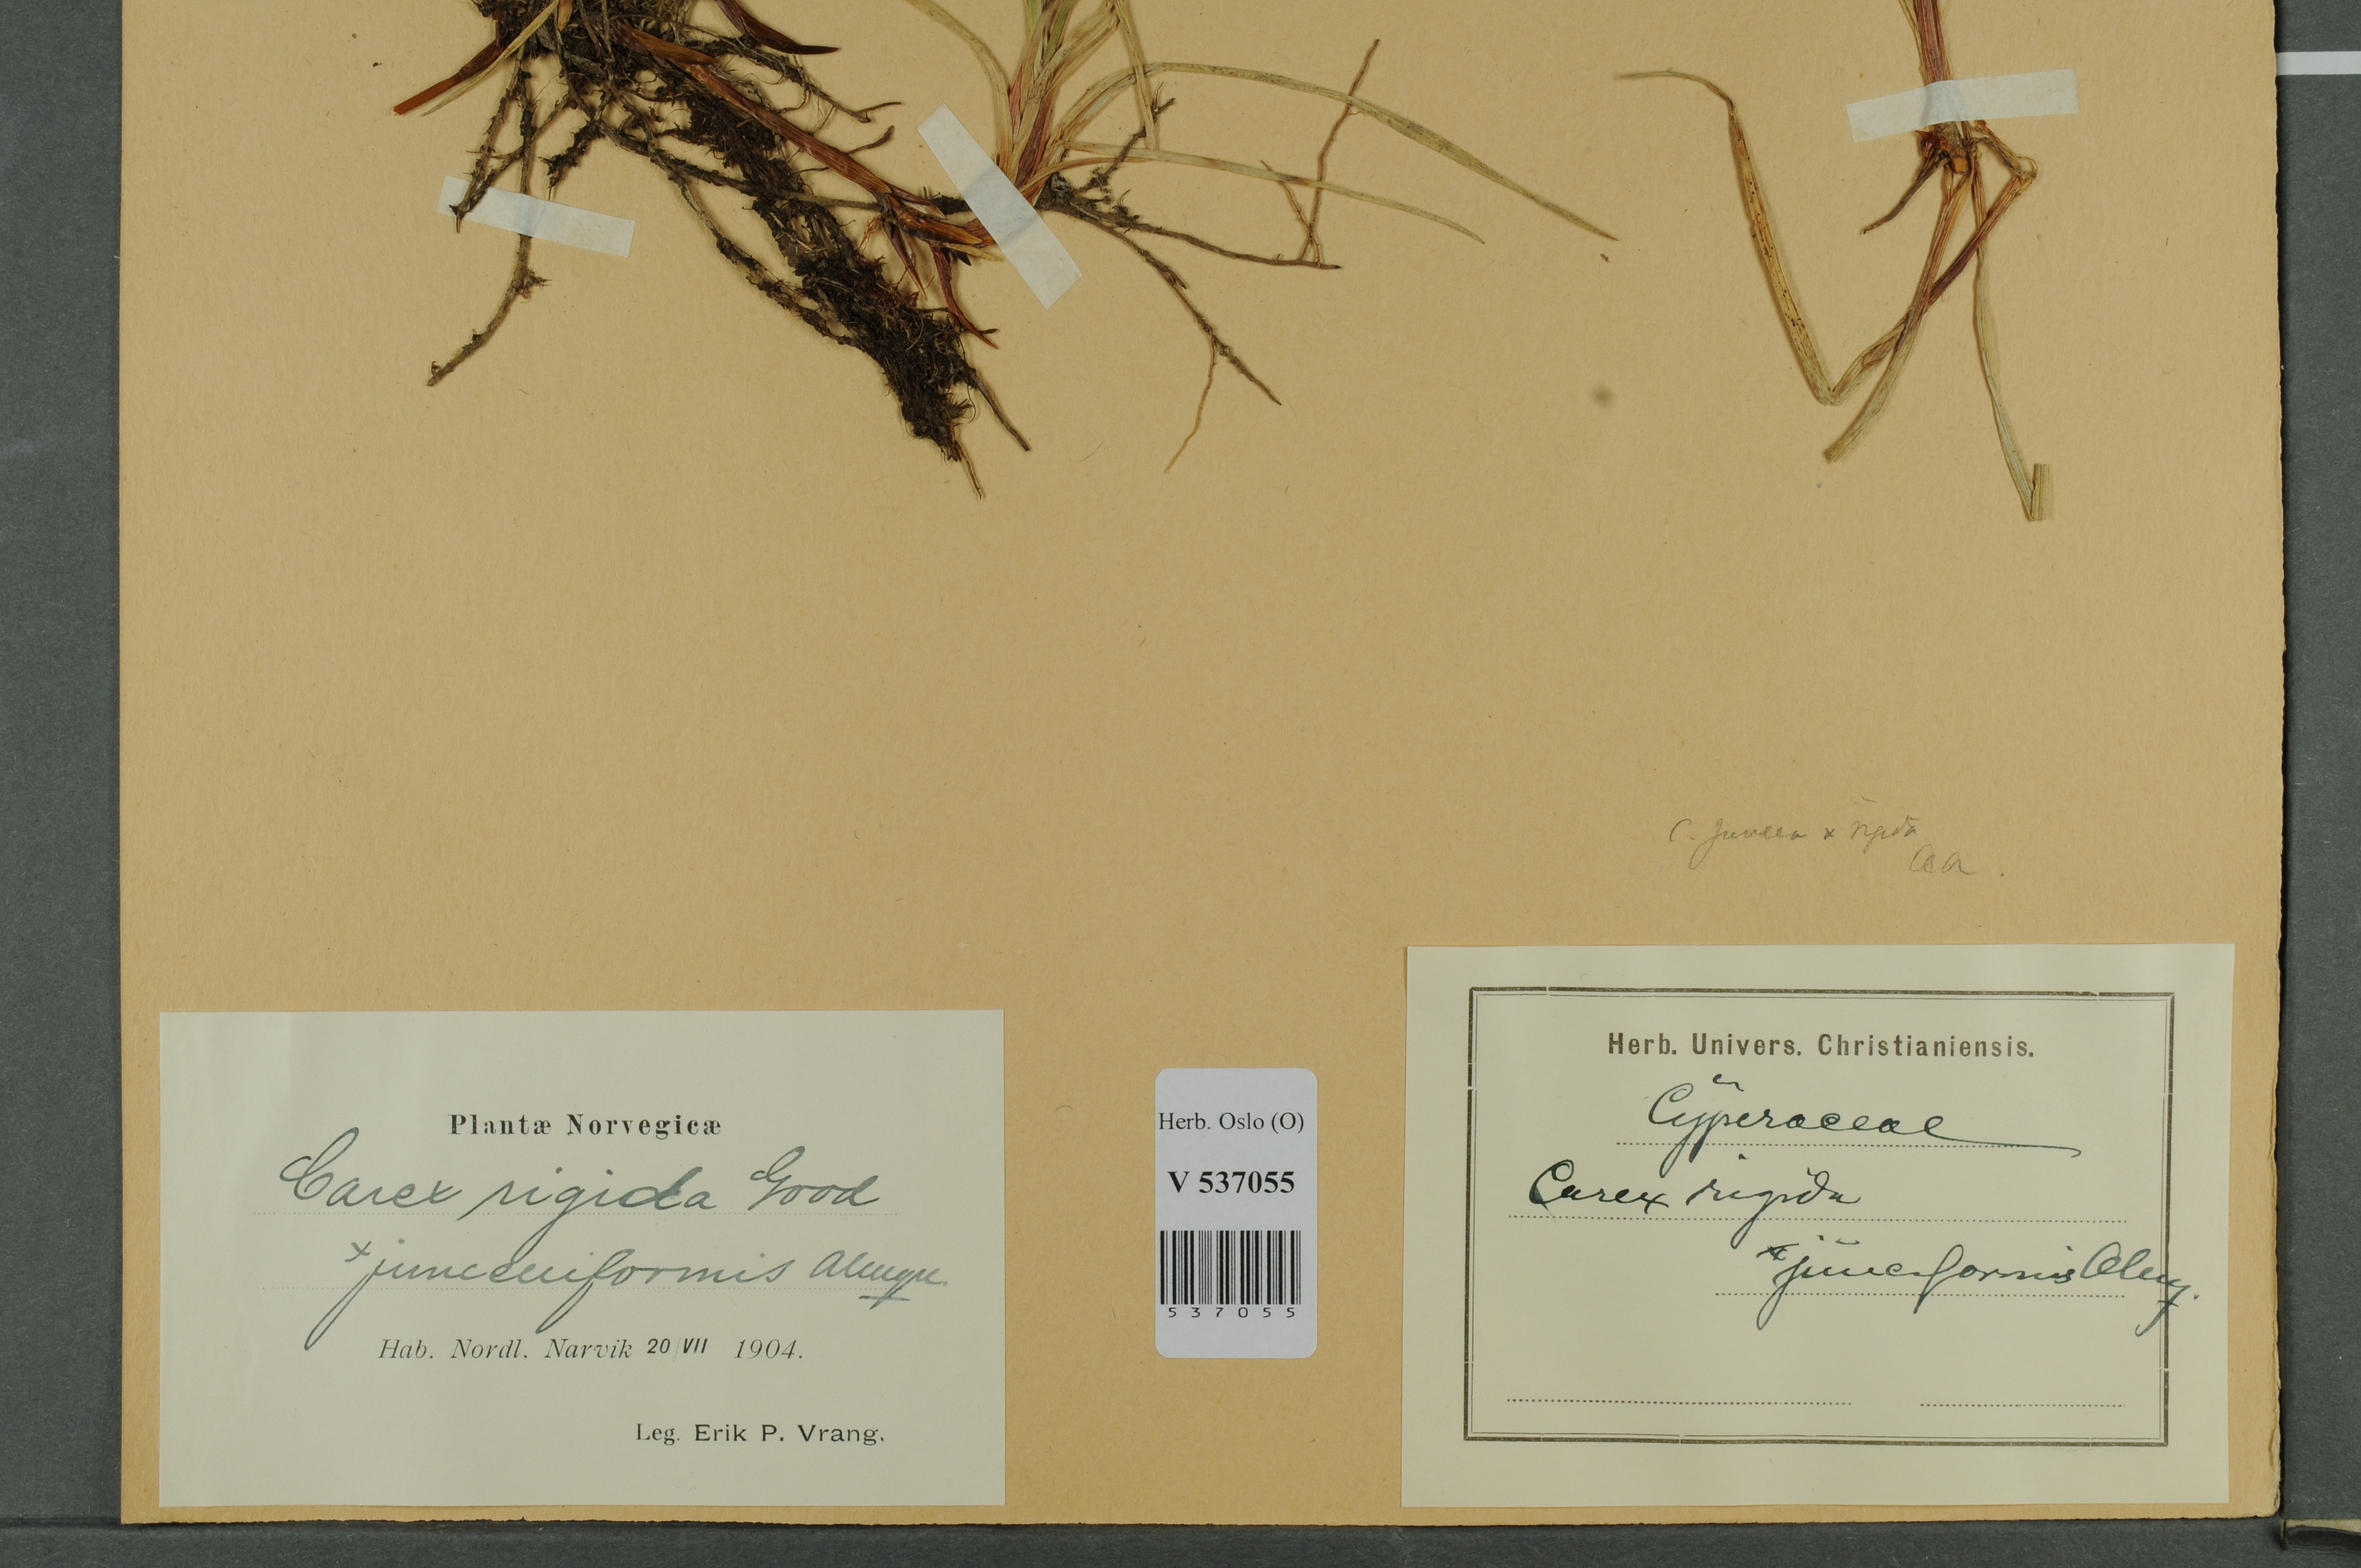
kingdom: Plantae
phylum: Tracheophyta
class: Liliopsida
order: Poales
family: Cyperaceae
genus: Carex
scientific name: Carex
